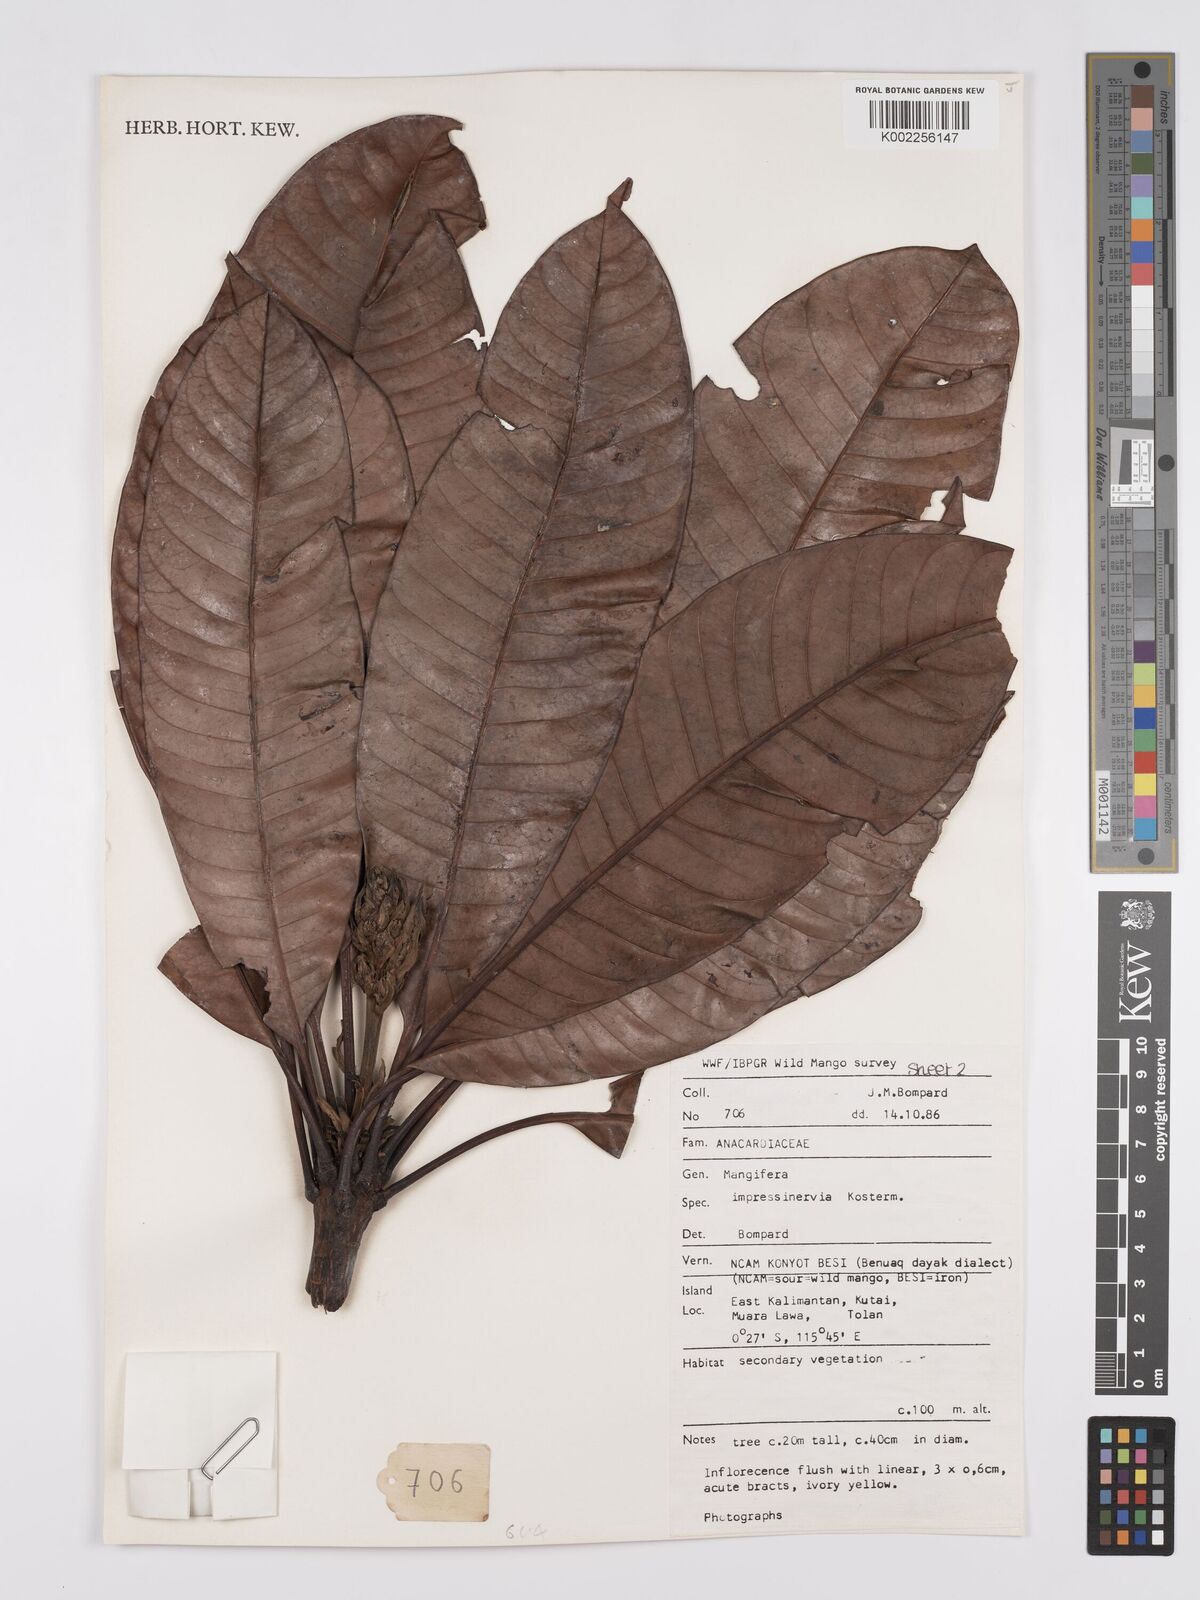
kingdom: Plantae
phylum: Tracheophyta
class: Magnoliopsida
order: Sapindales
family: Anacardiaceae
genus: Mangifera
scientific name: Mangifera
